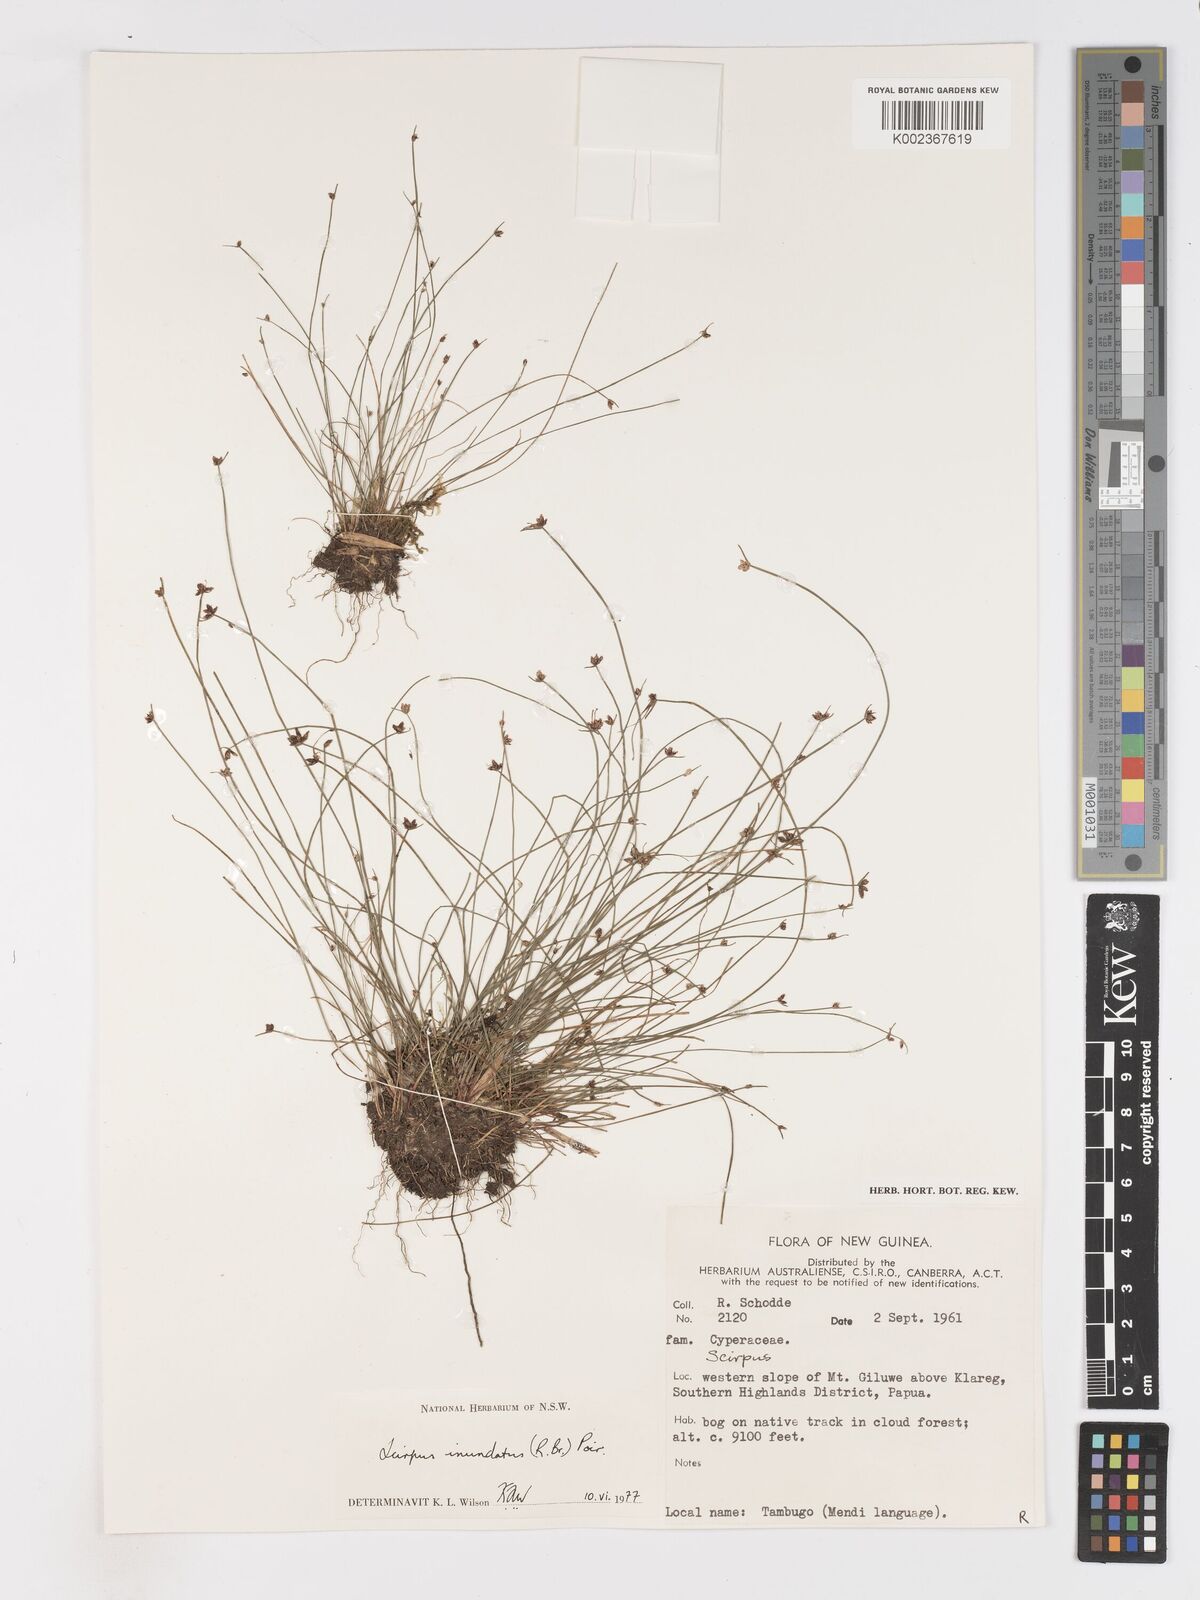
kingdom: Plantae
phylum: Tracheophyta
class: Liliopsida
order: Poales
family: Cyperaceae
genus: Isolepis
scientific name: Isolepis inundata
